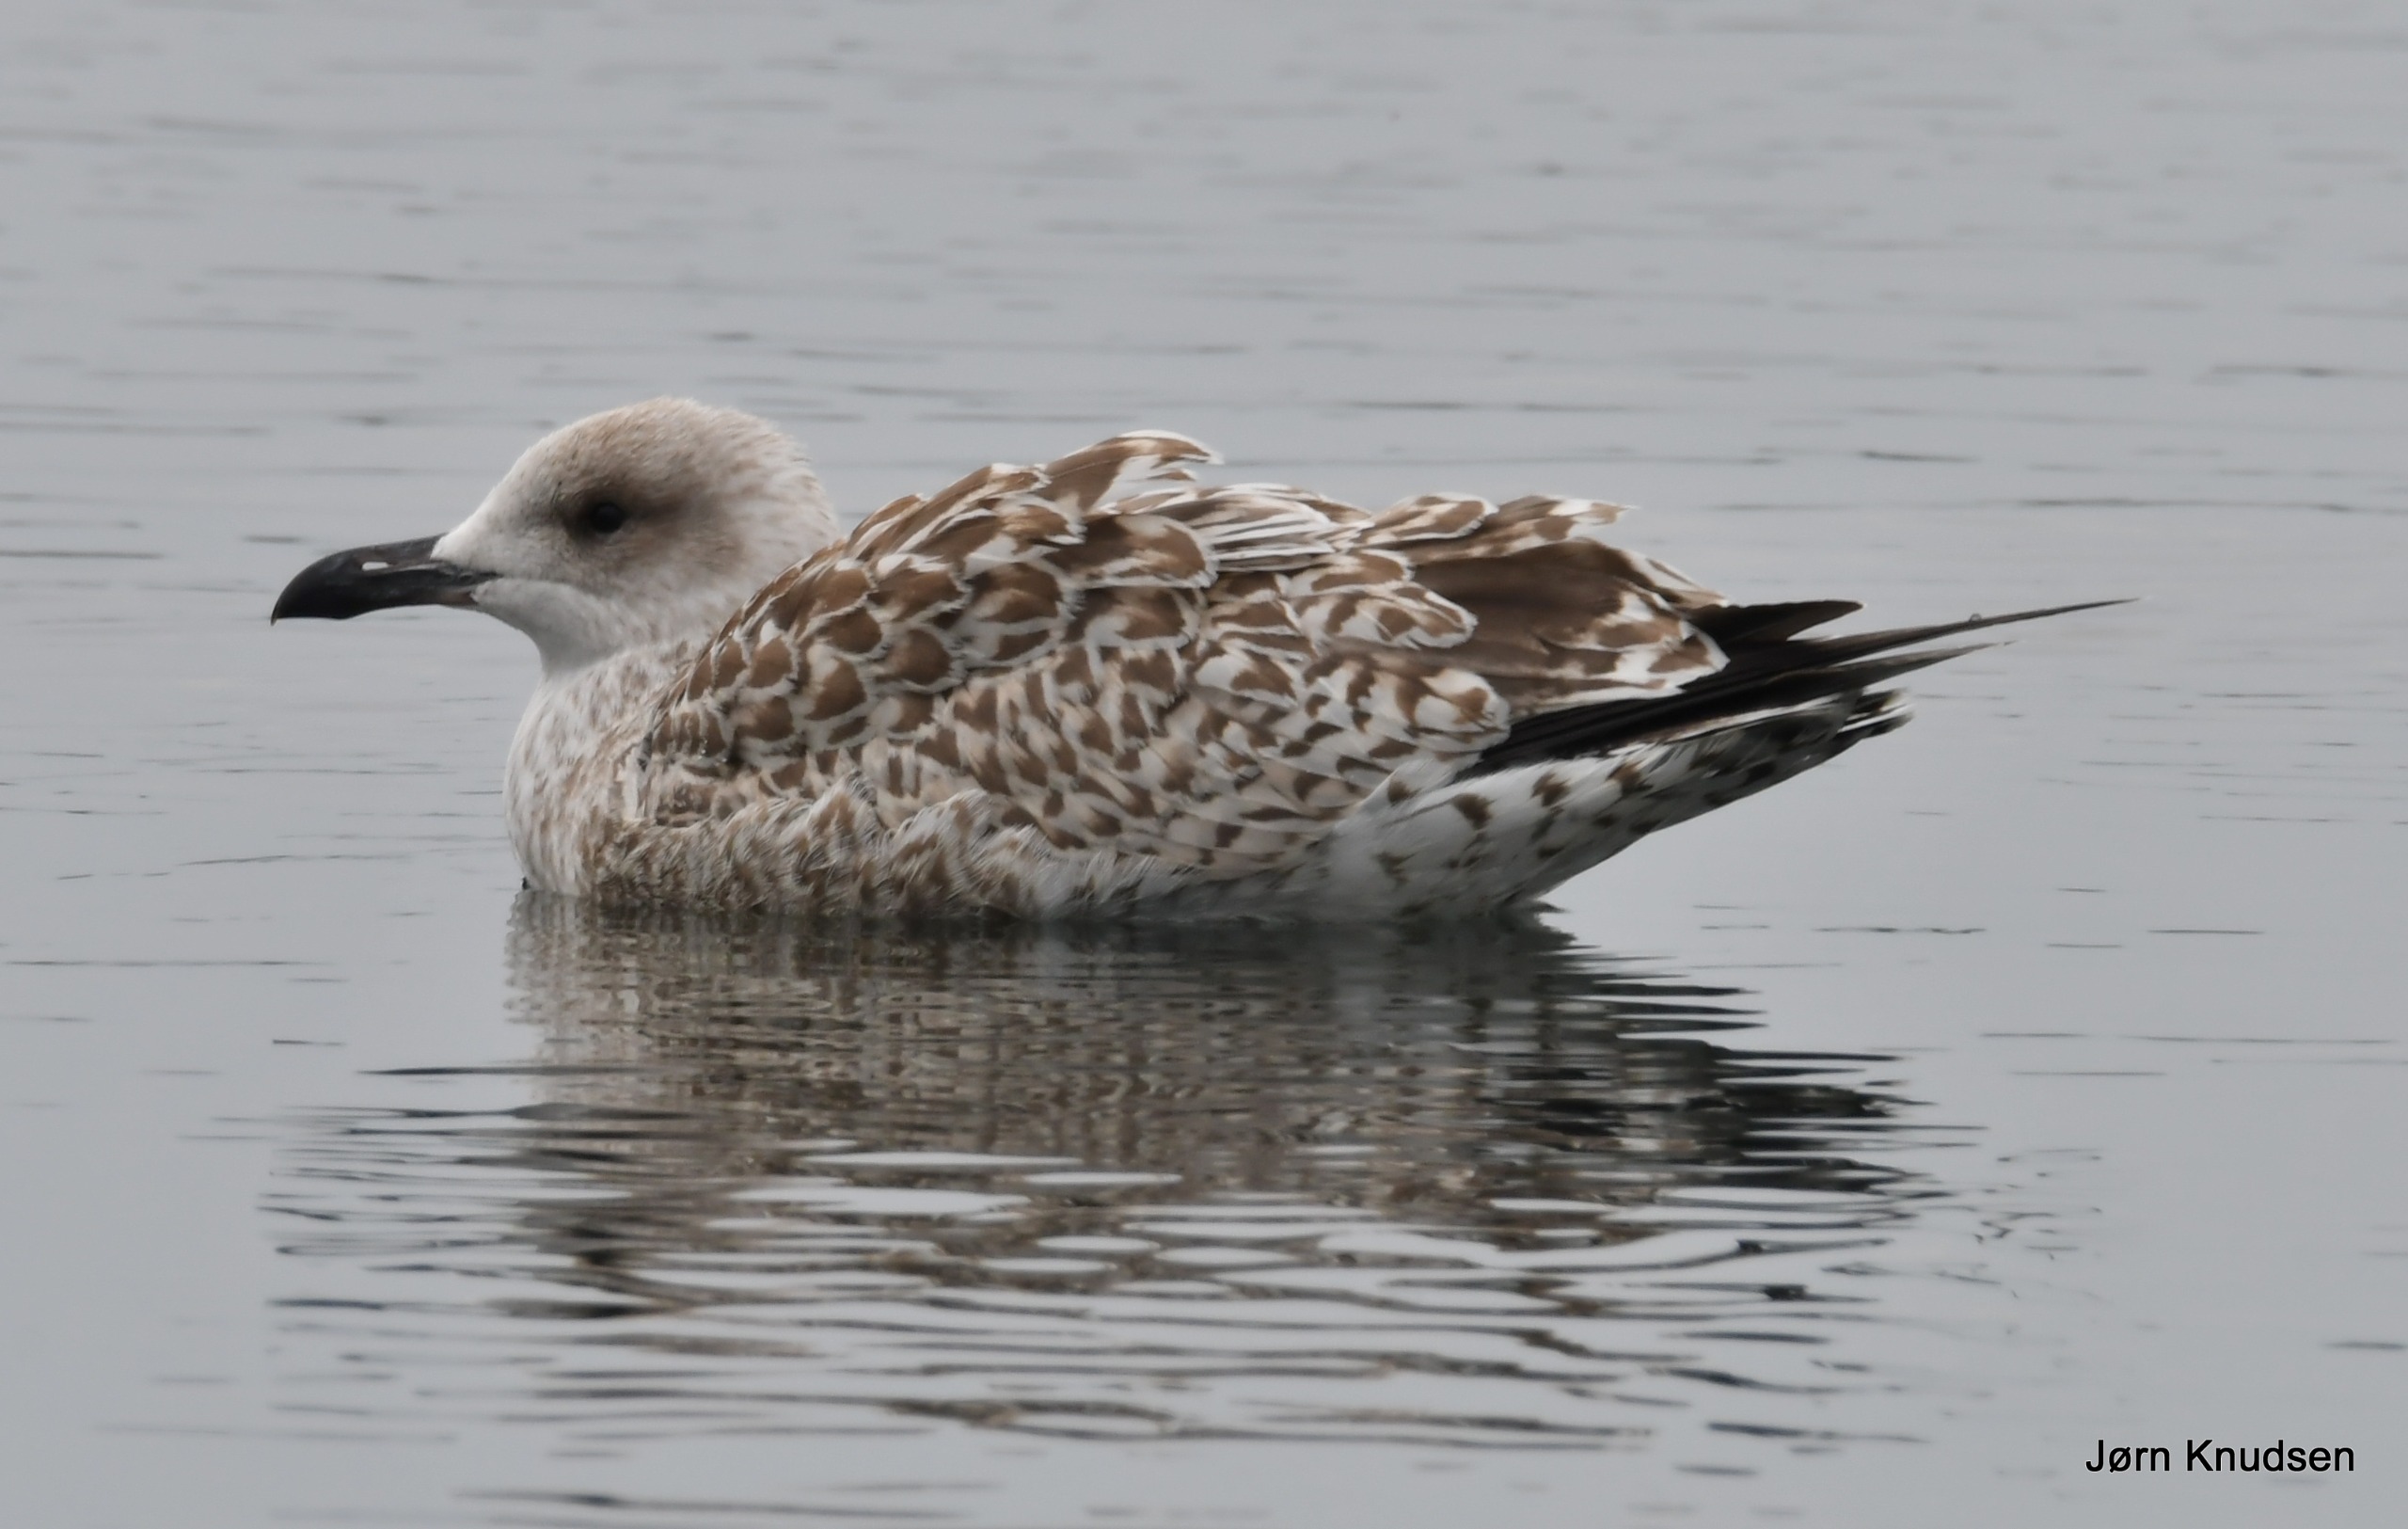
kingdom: Animalia
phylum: Chordata
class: Aves
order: Charadriiformes
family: Laridae
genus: Larus
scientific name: Larus argentatus
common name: Sølvmåge
